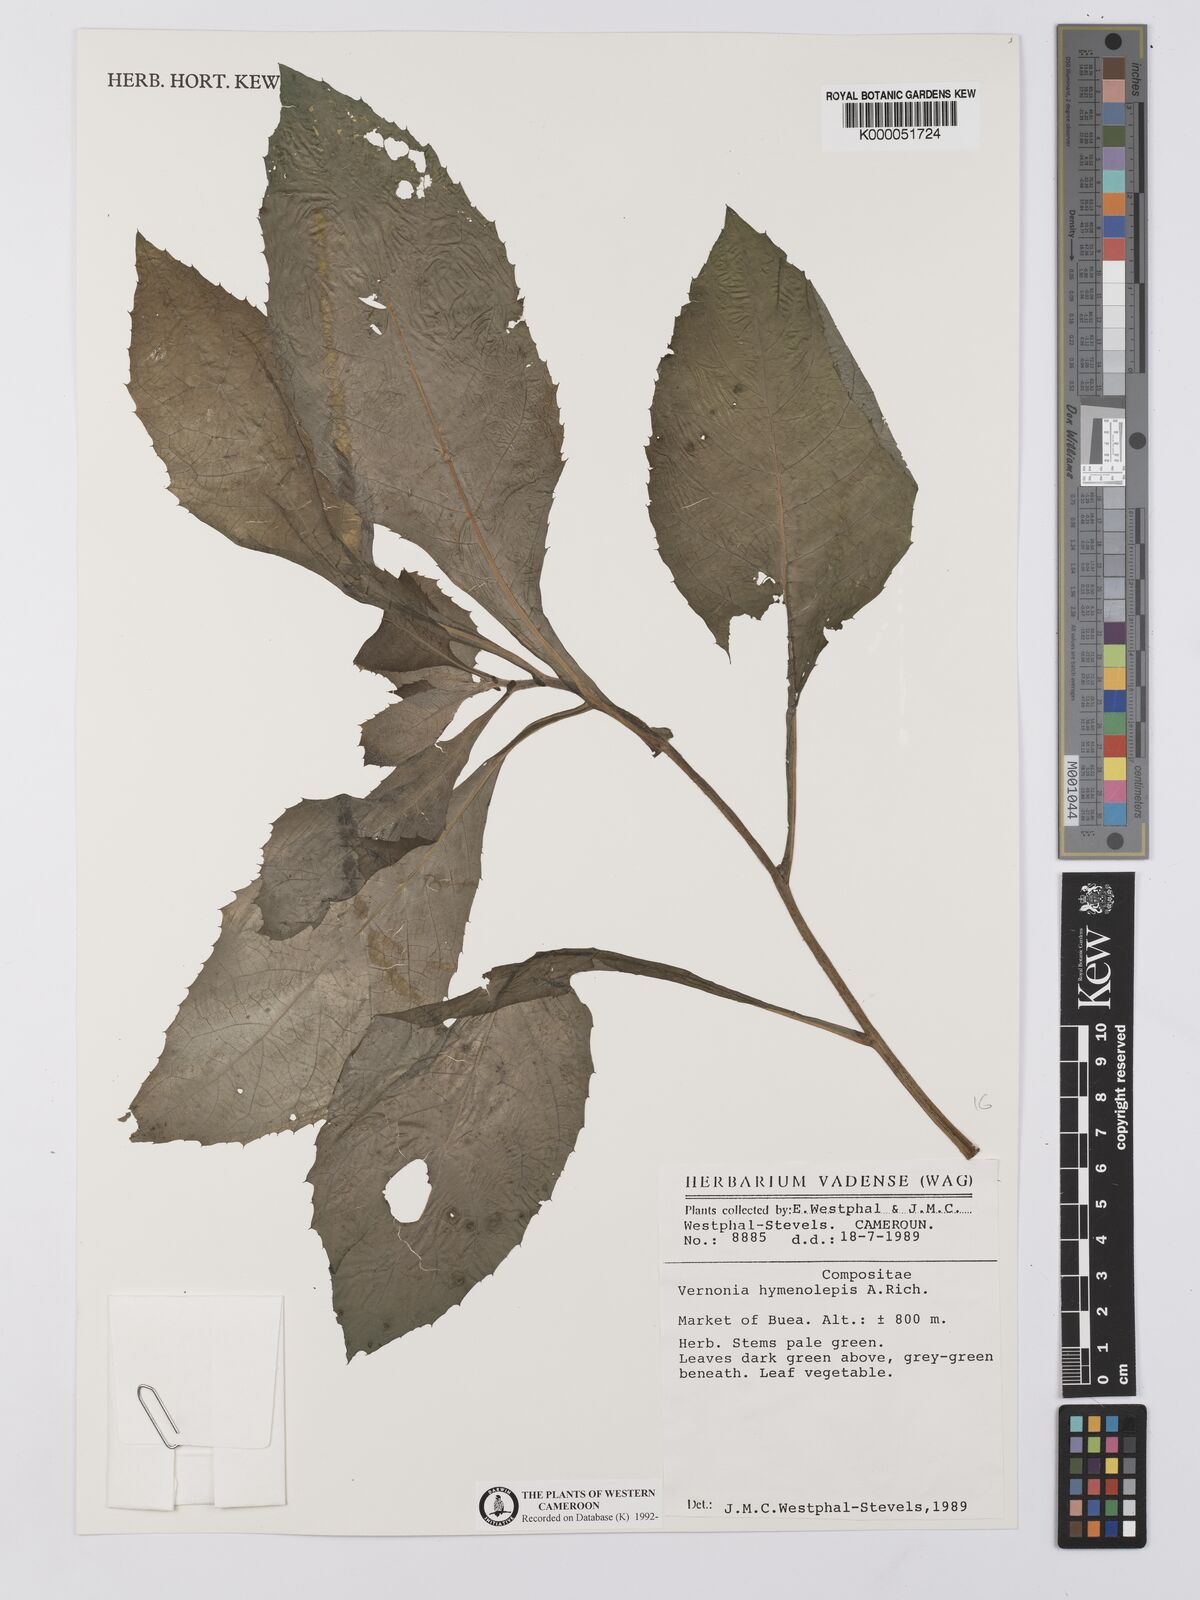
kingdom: Plantae
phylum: Tracheophyta
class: Magnoliopsida
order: Asterales
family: Asteraceae
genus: Baccharoides
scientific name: Baccharoides hymenolepis
